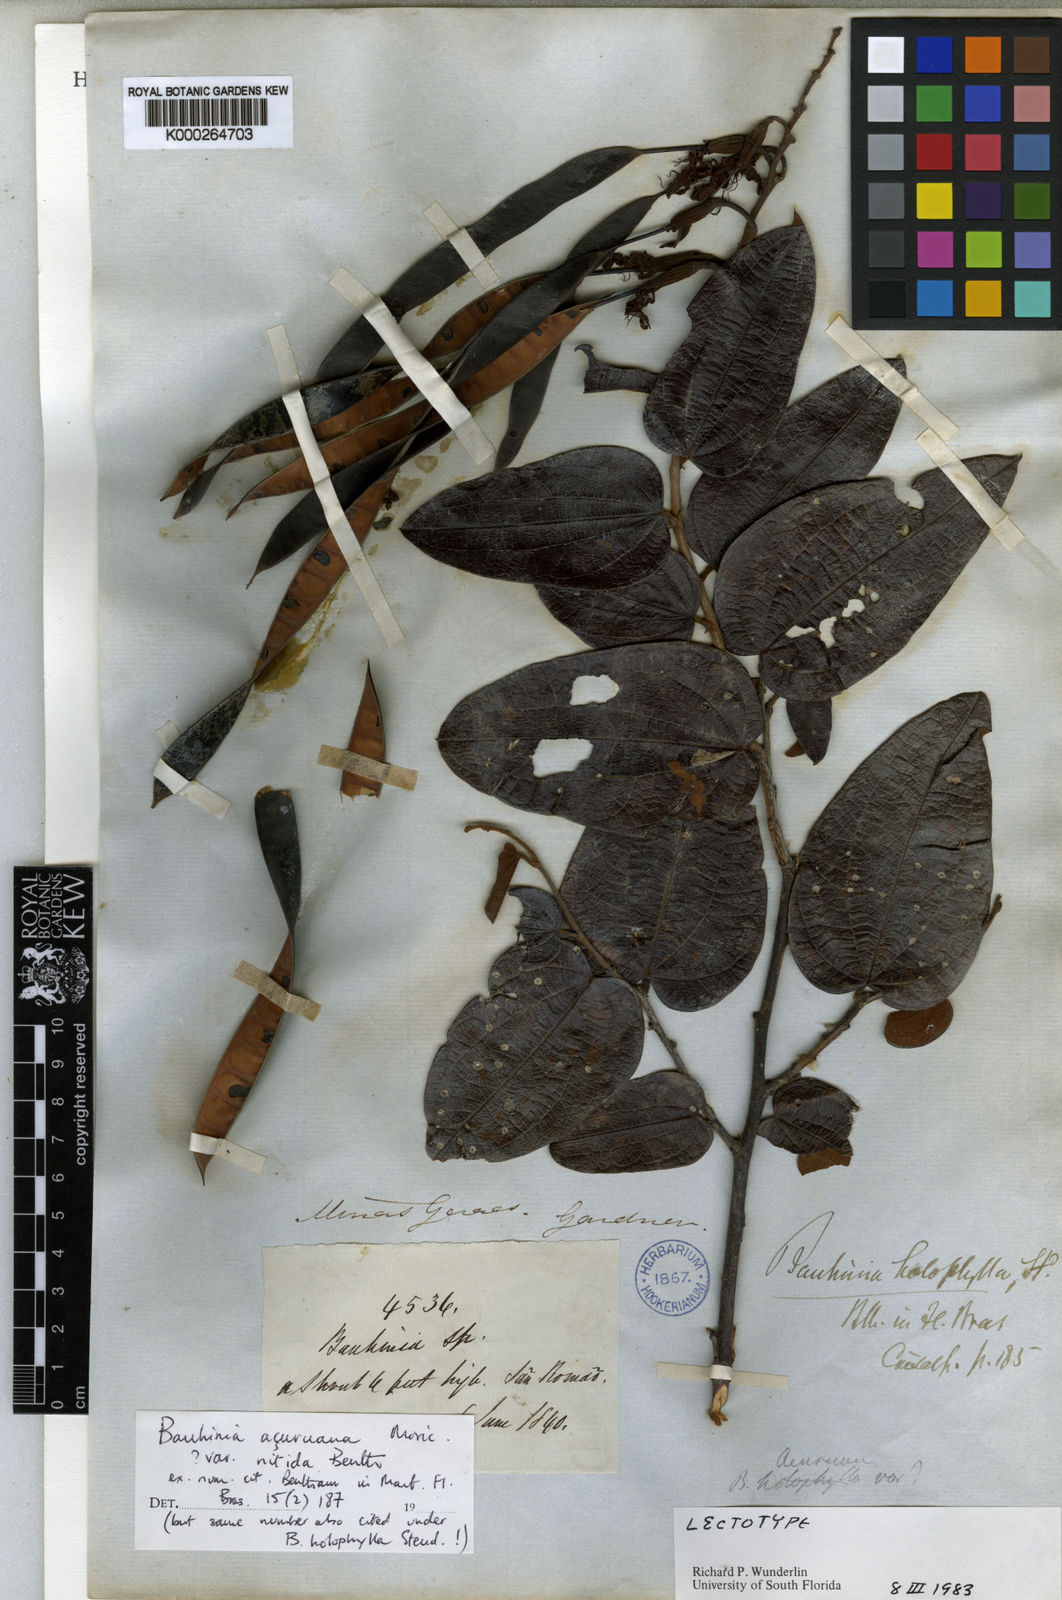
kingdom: Plantae
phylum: Tracheophyta
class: Magnoliopsida
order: Fabales
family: Fabaceae
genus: Bauhinia
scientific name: Bauhinia acuruana
